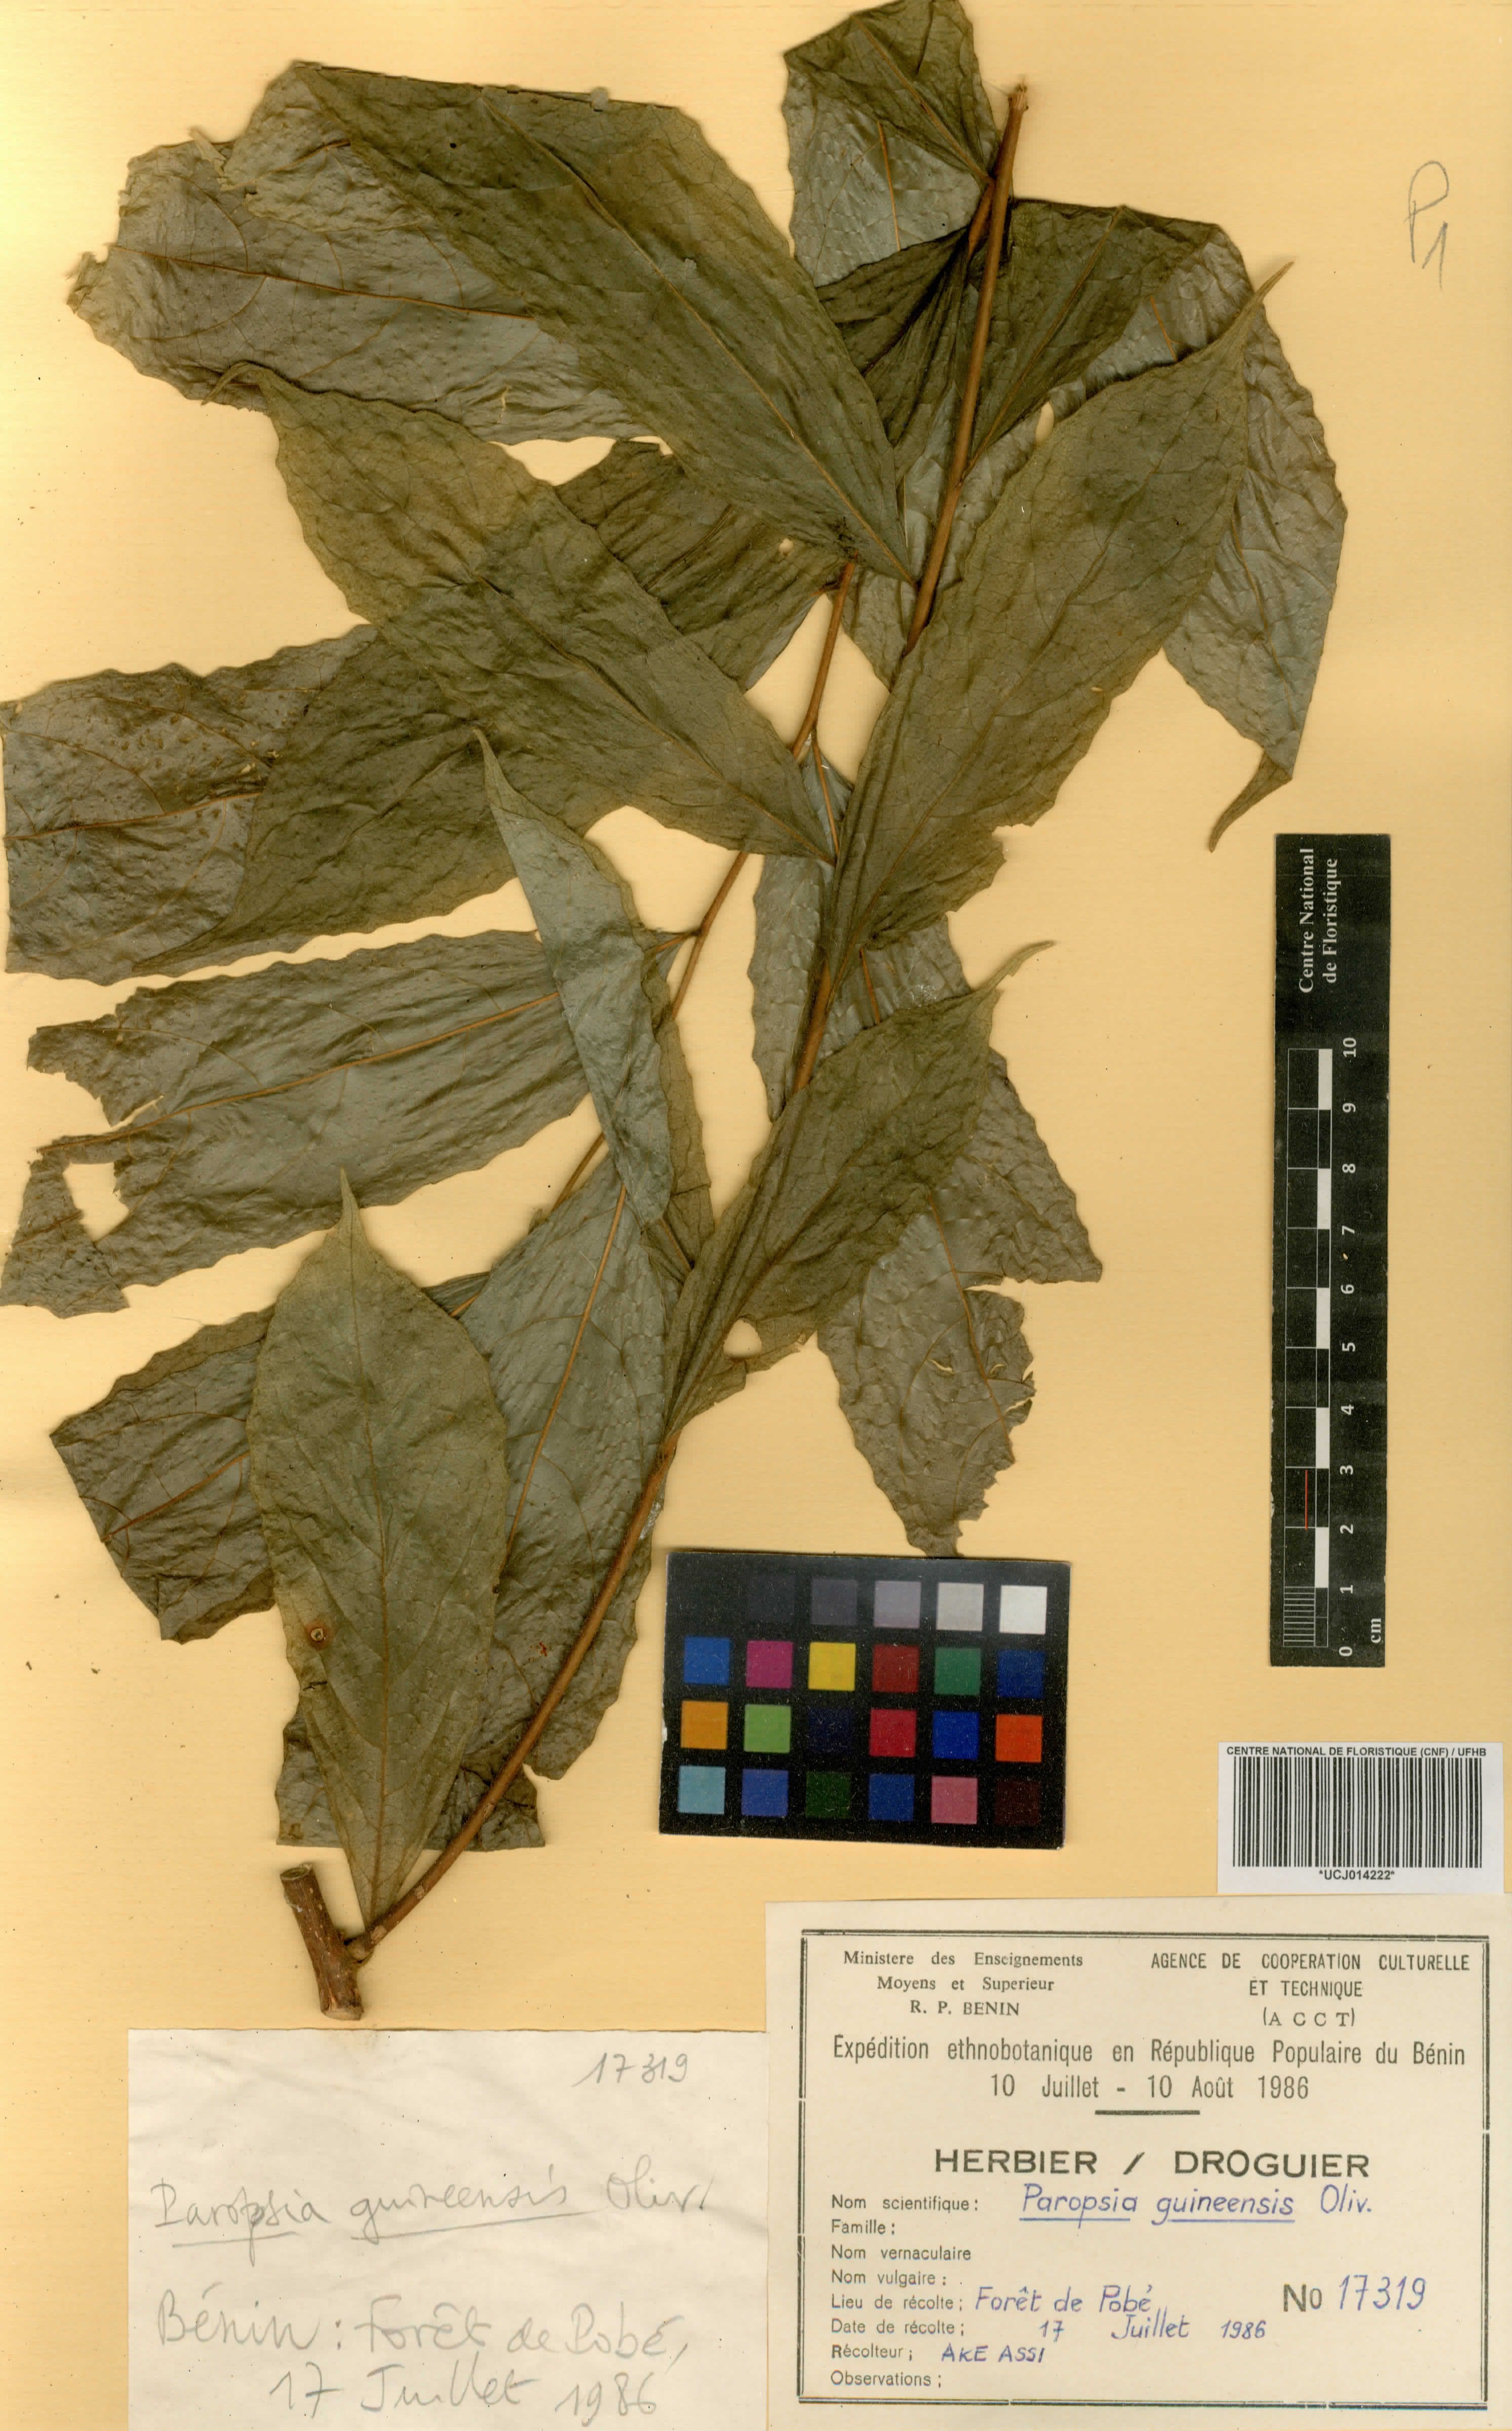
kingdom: Plantae
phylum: Tracheophyta
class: Magnoliopsida
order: Malpighiales
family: Passifloraceae
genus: Paropsia
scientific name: Paropsia guineensis
